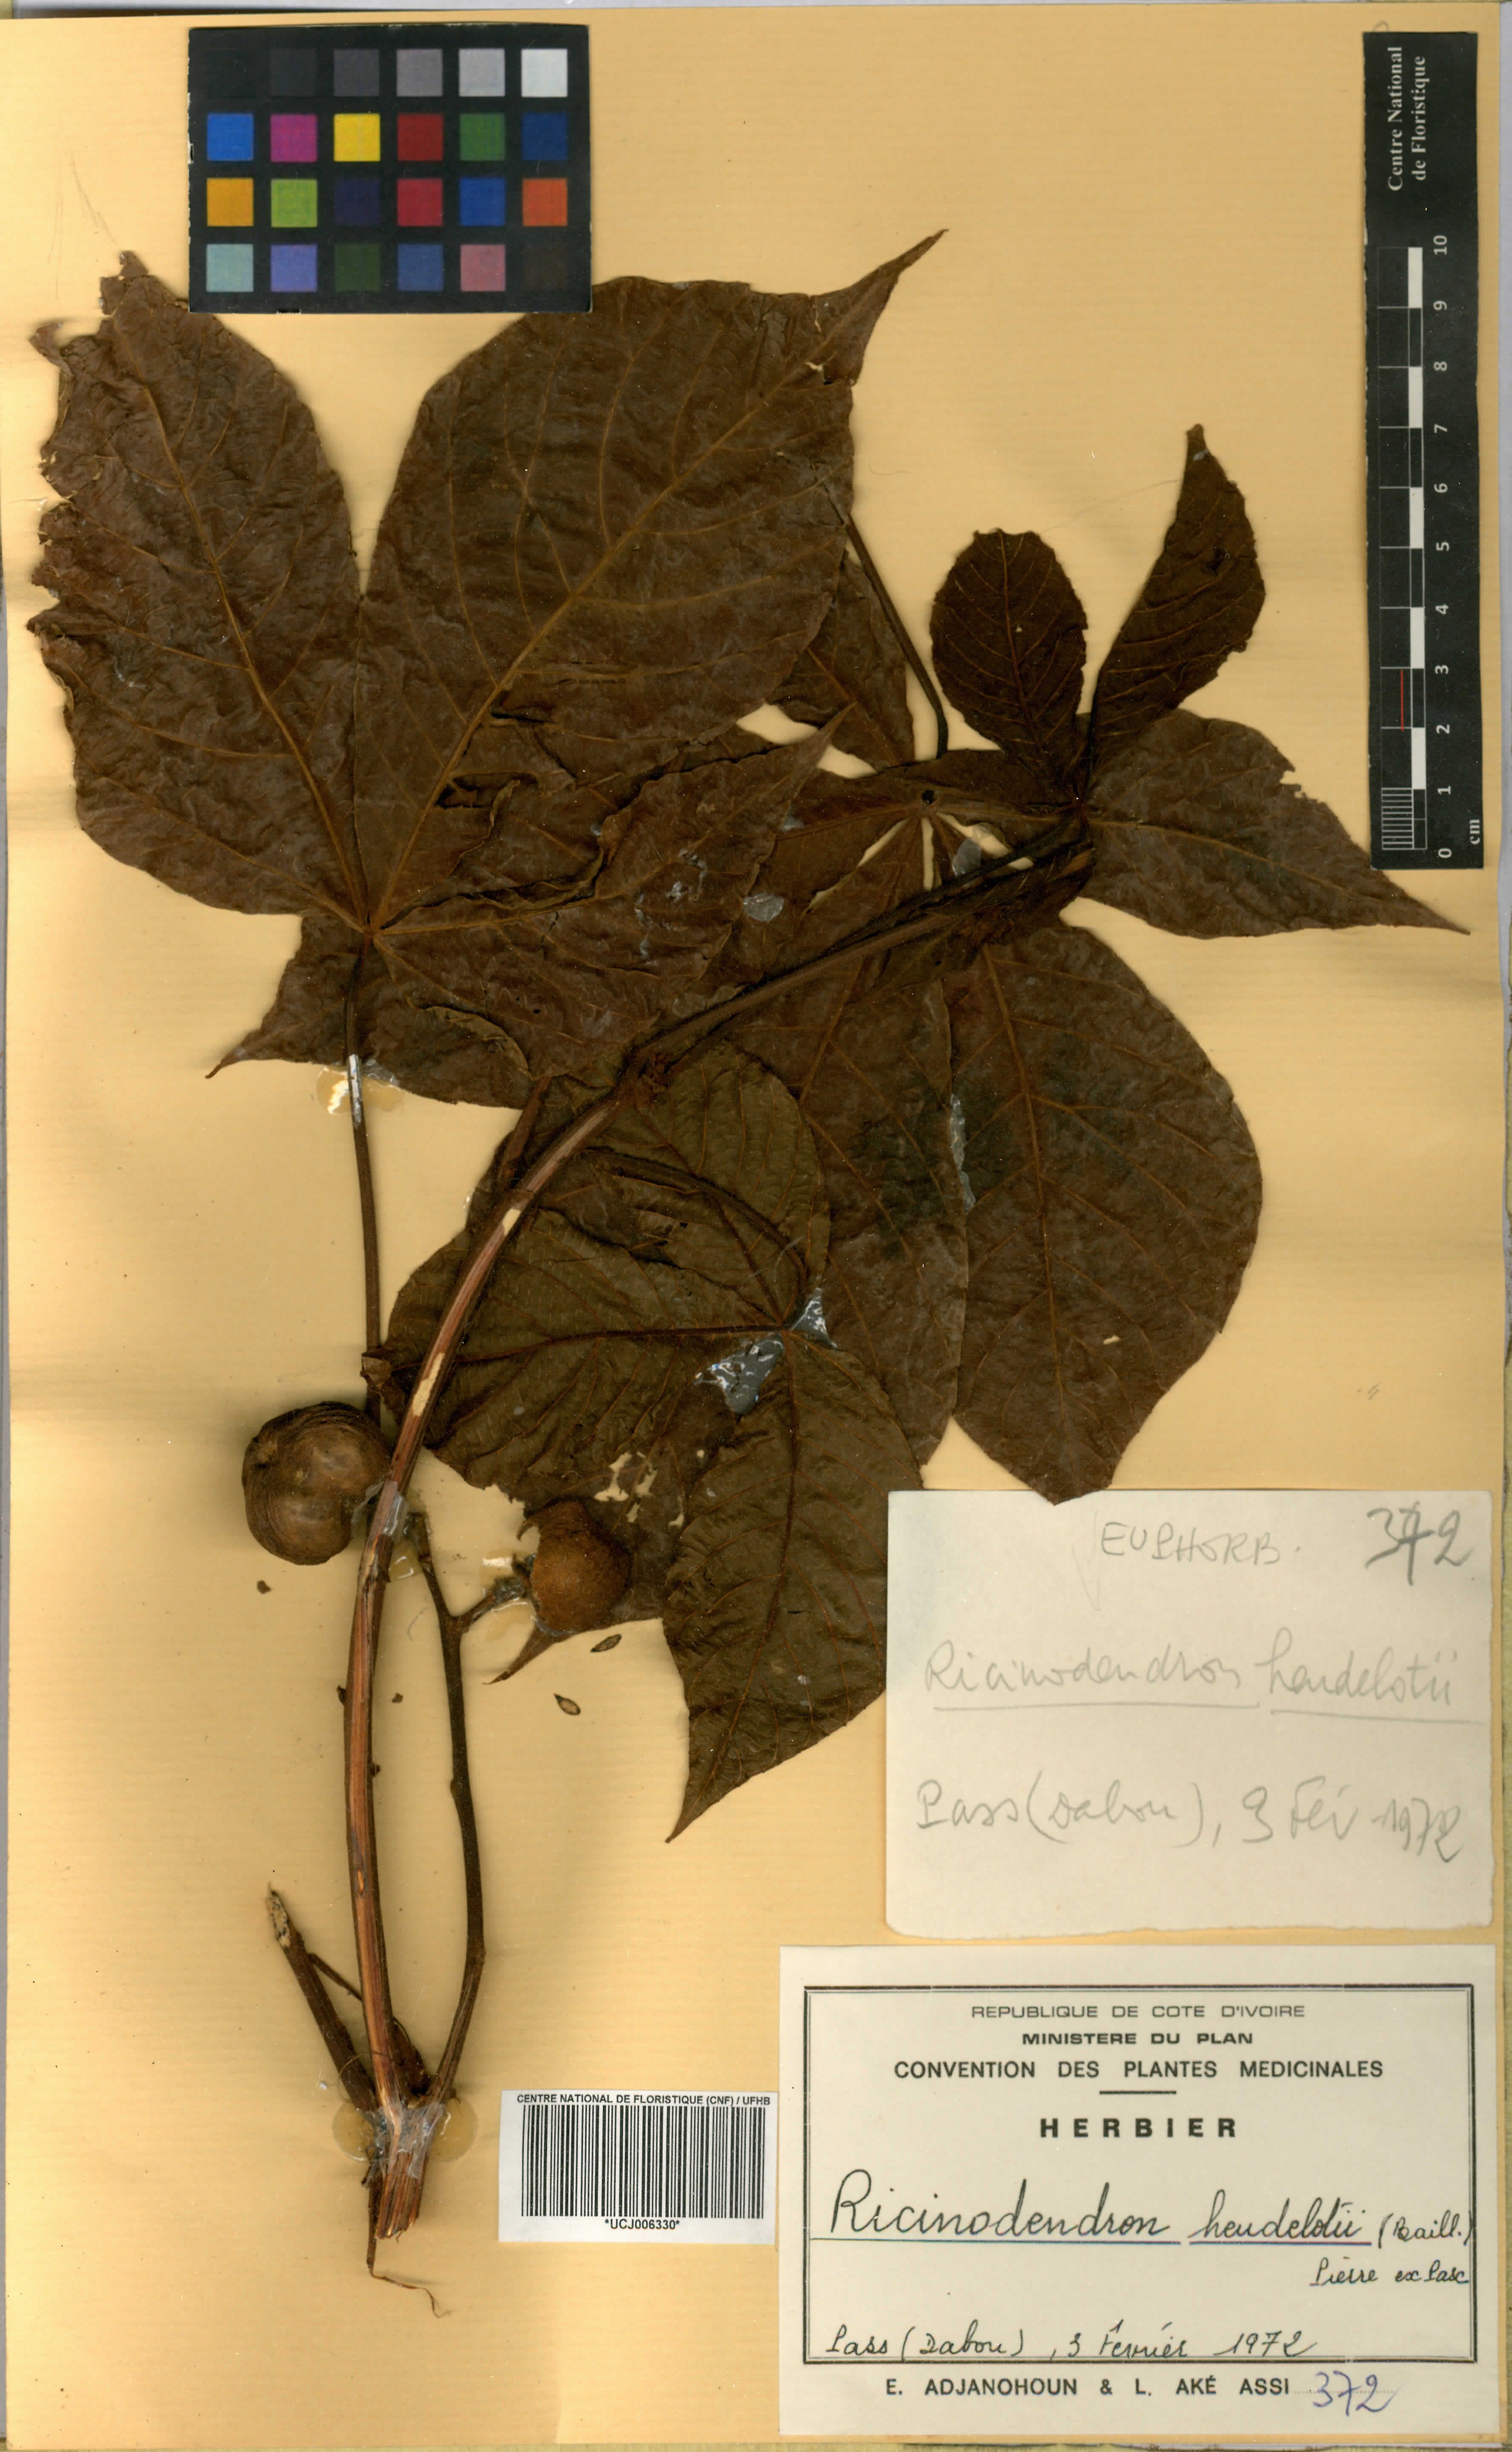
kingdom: Plantae
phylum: Tracheophyta
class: Magnoliopsida
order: Malpighiales
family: Euphorbiaceae
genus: Ricinodendron
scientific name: Ricinodendron heudelotii
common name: African nut-tree
